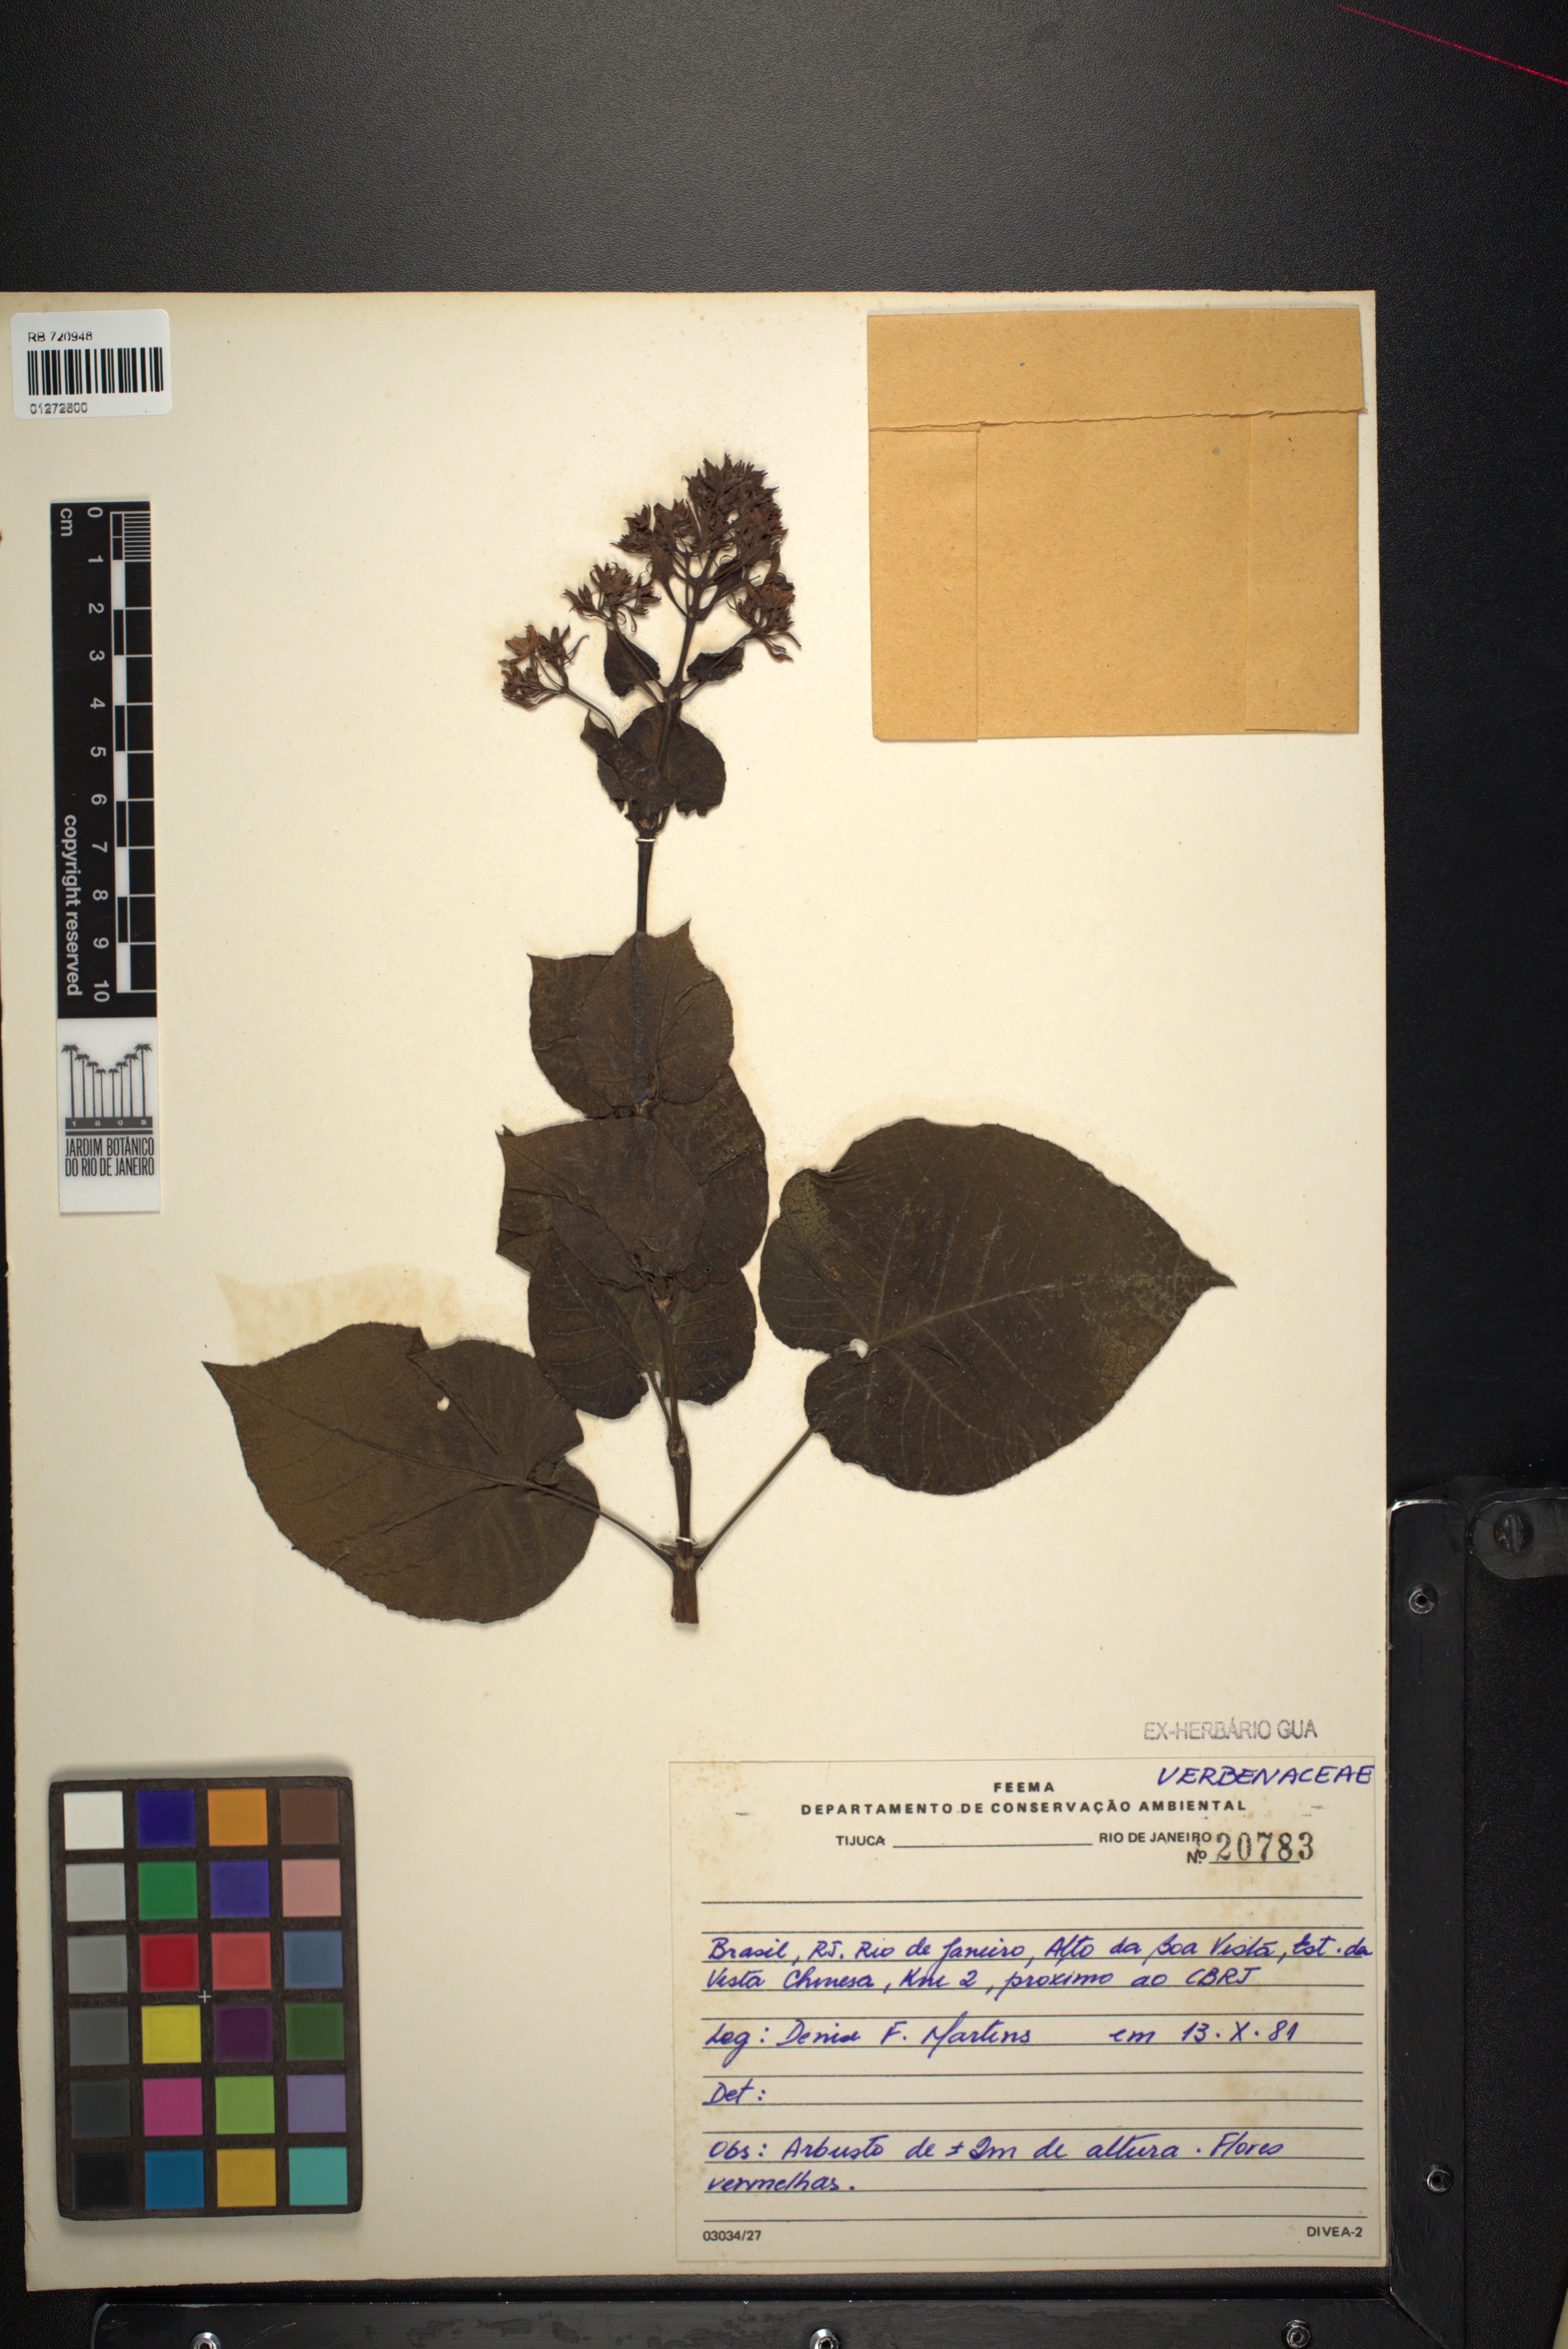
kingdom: Plantae
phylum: Tracheophyta
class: Magnoliopsida
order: Lamiales
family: Lamiaceae
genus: Clerodendrum
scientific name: Clerodendrum
